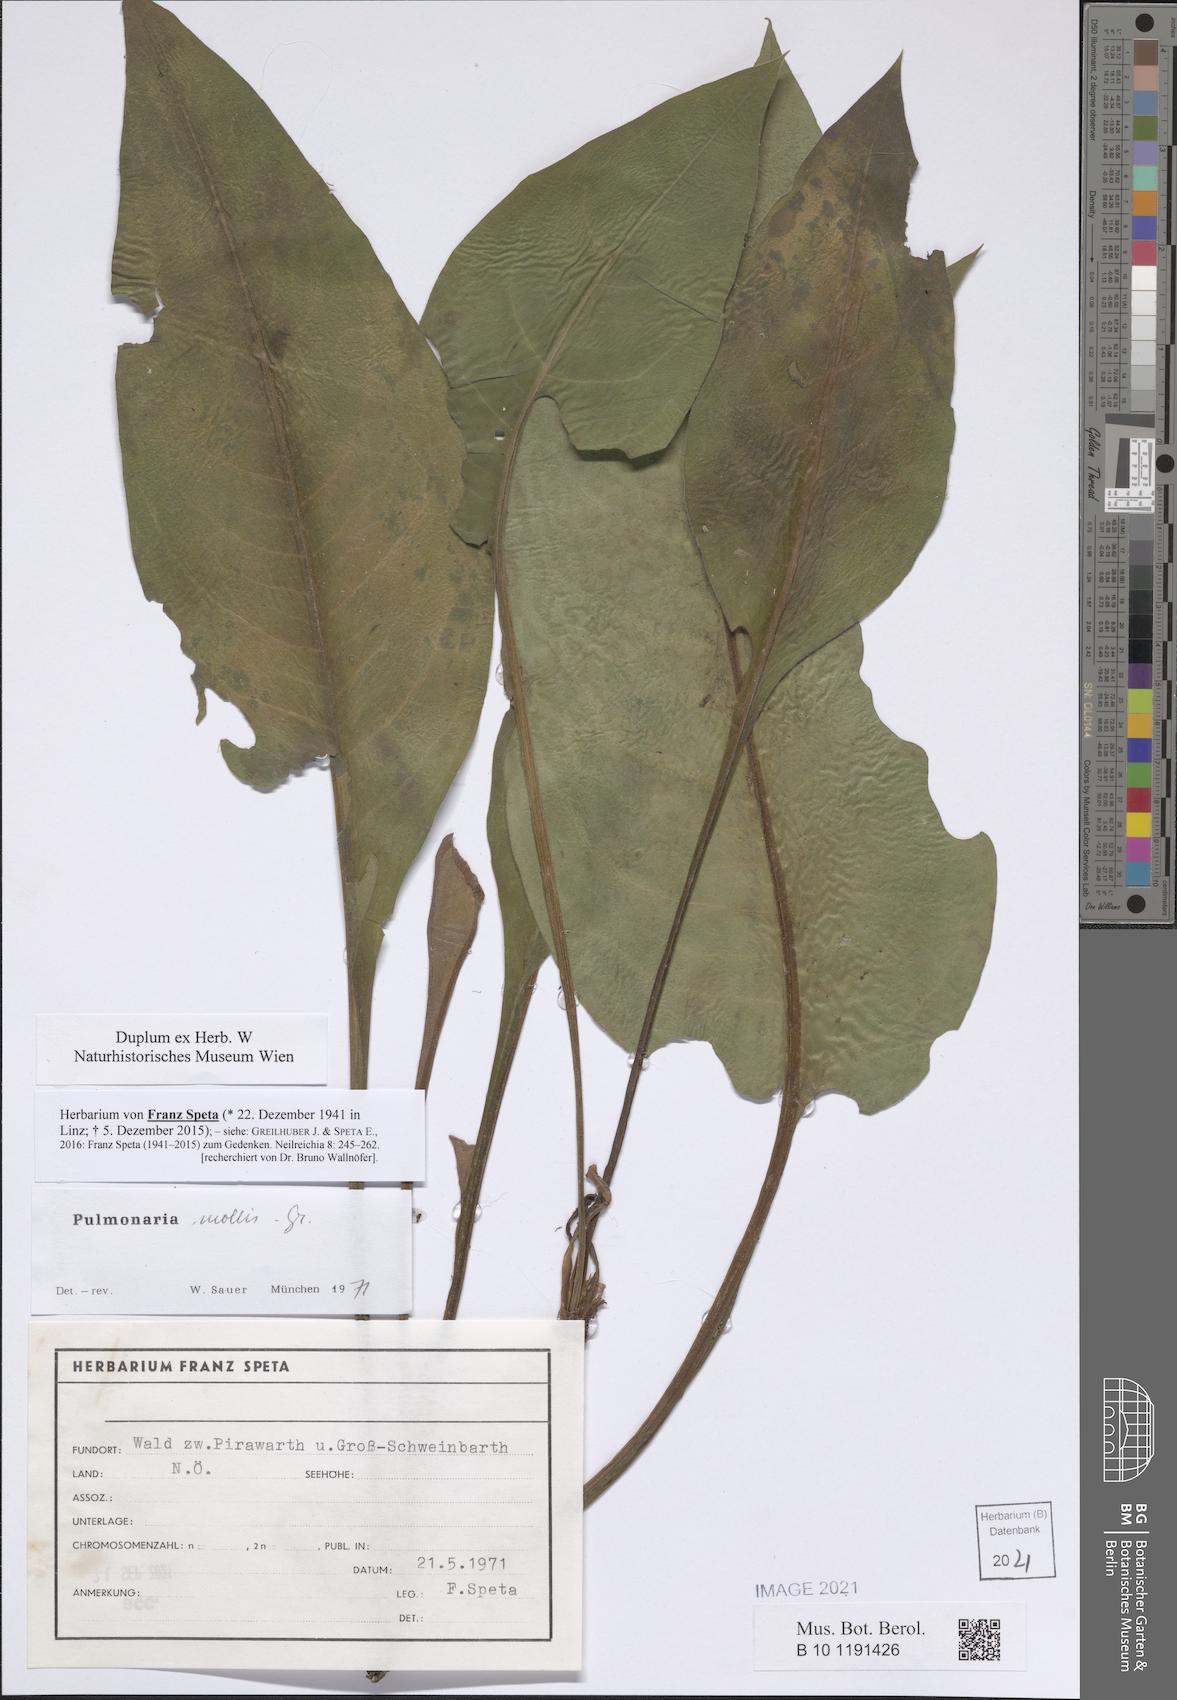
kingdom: Plantae
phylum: Tracheophyta
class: Magnoliopsida
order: Boraginales
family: Boraginaceae
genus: Pulmonaria
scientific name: Pulmonaria mollis
